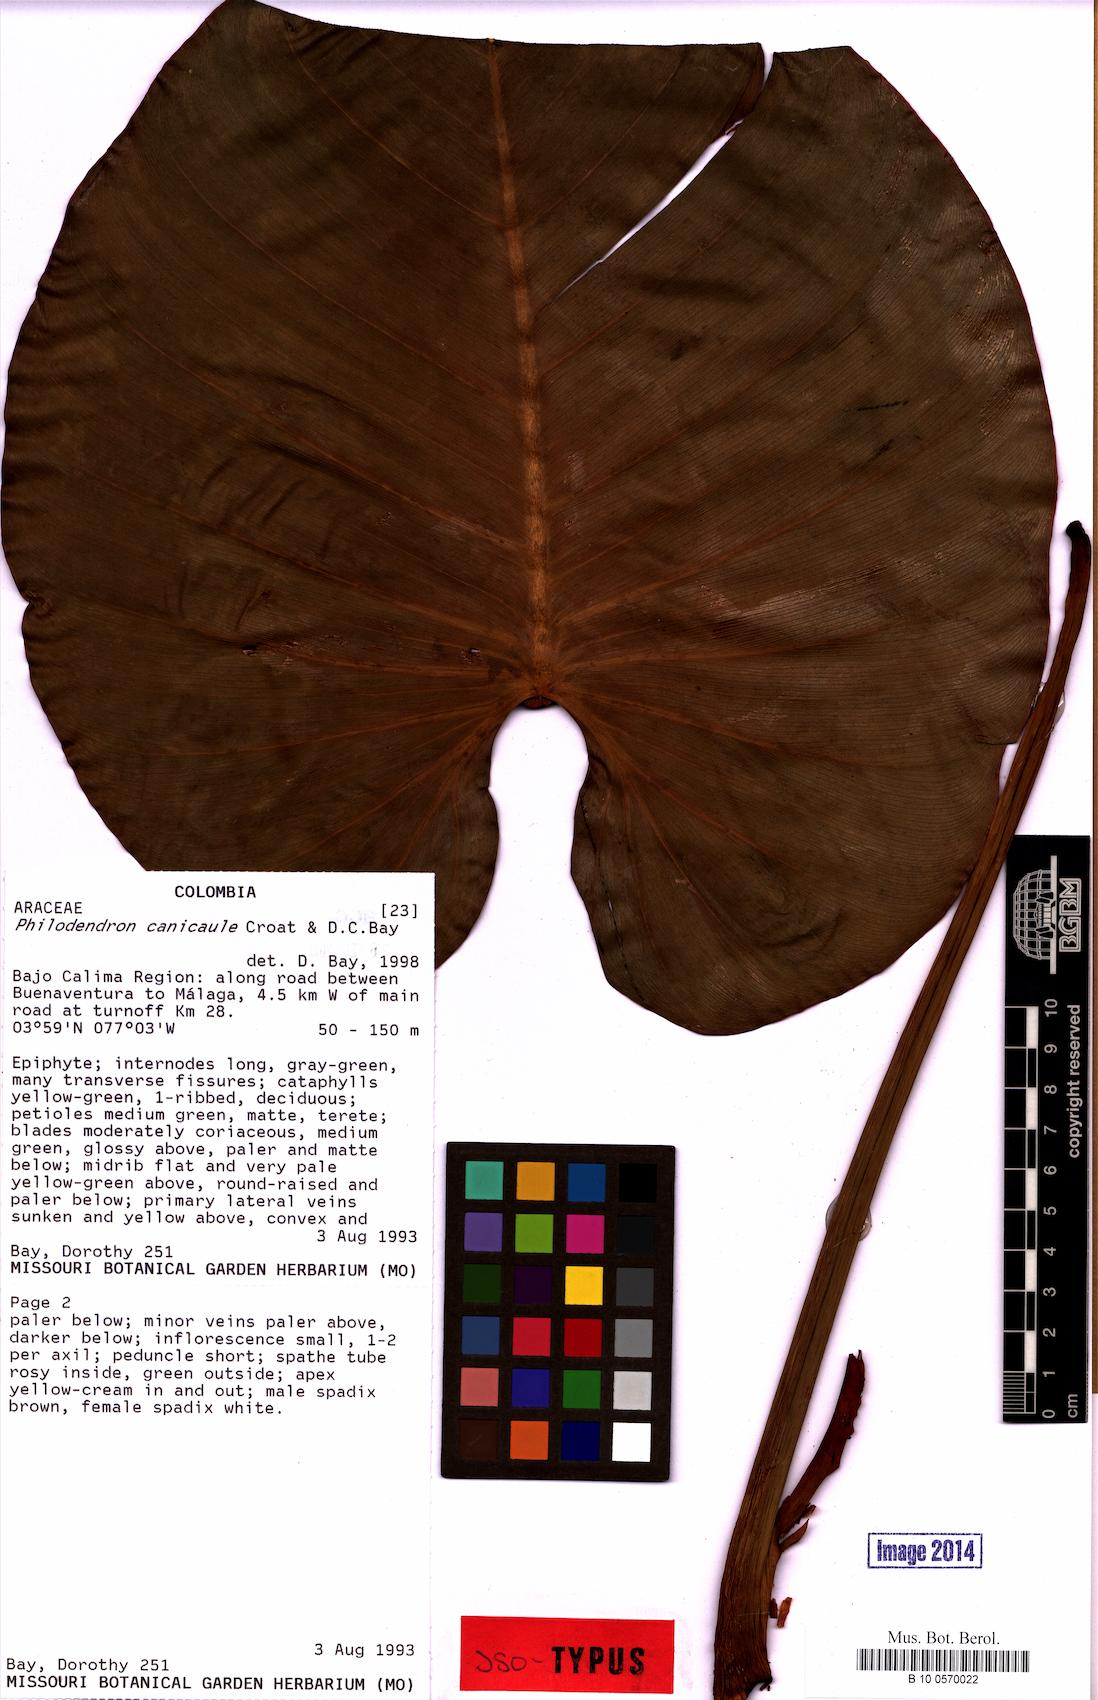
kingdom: Plantae
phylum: Tracheophyta
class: Liliopsida
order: Alismatales
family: Araceae
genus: Philodendron
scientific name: Philodendron canicaule
